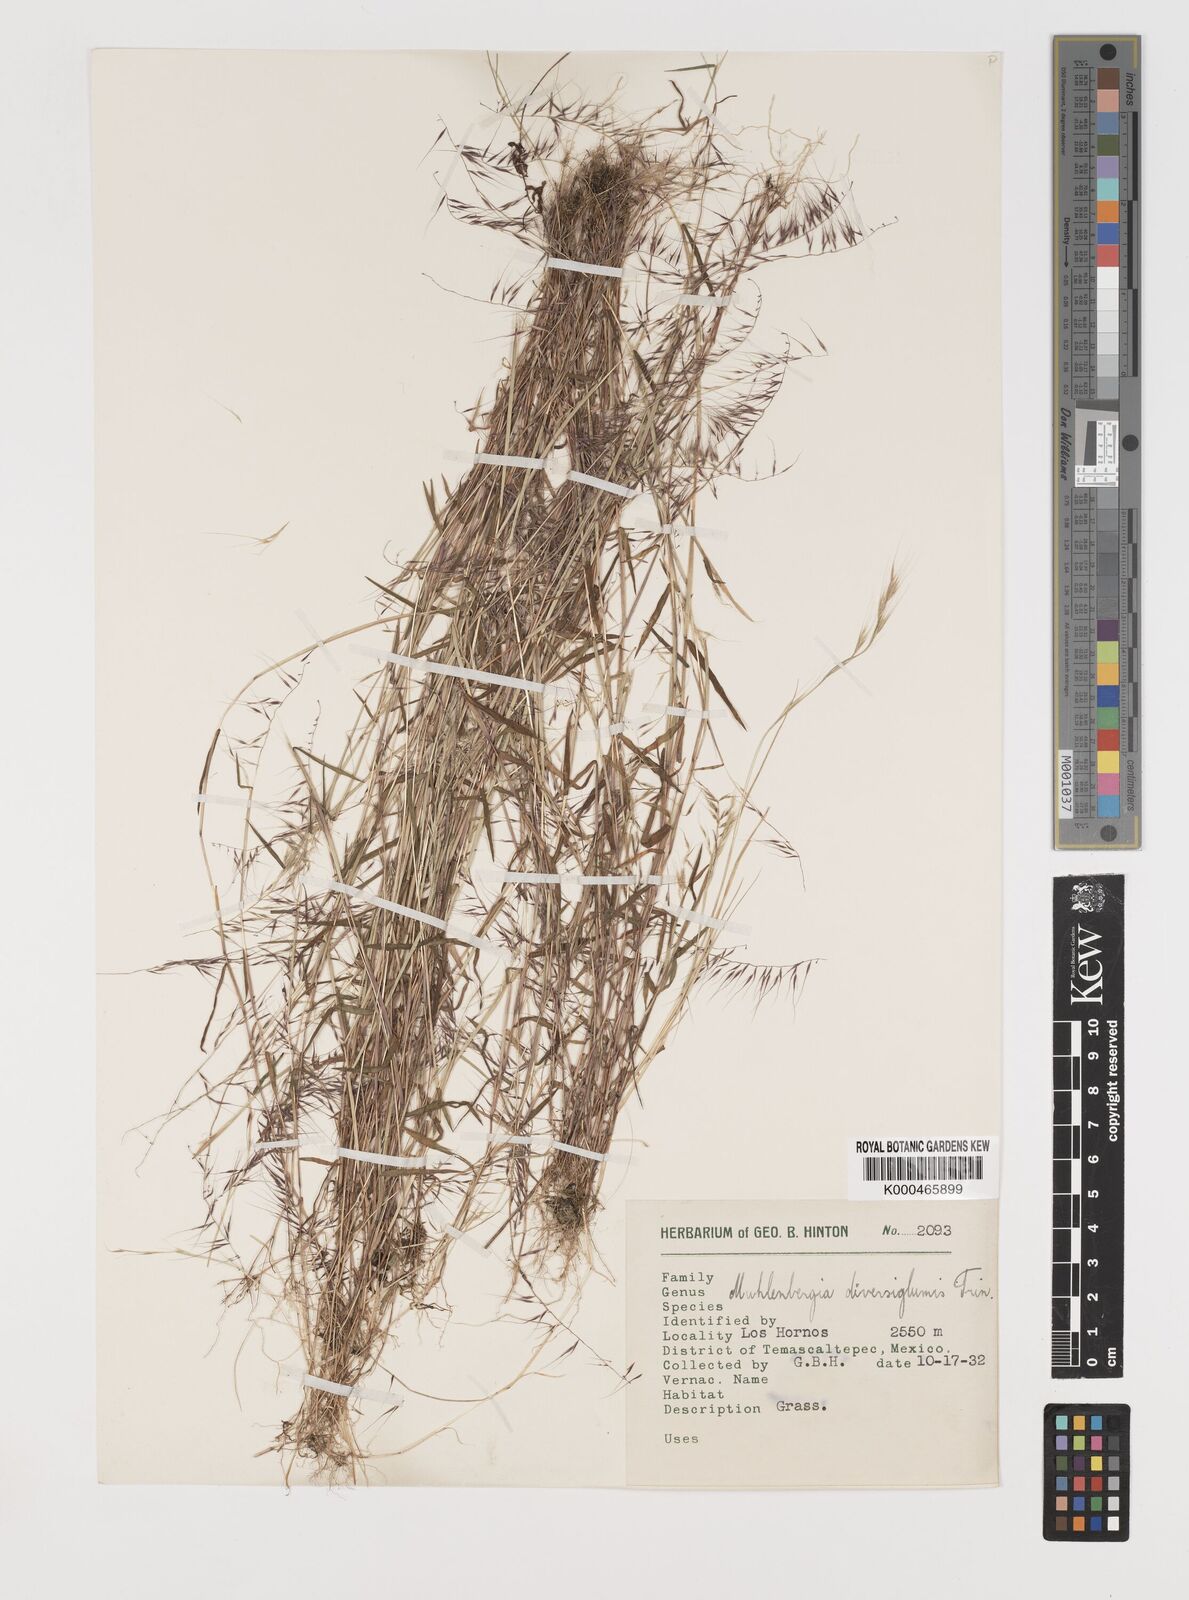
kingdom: Plantae
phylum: Tracheophyta
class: Liliopsida
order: Poales
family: Poaceae
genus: Muhlenbergia
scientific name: Muhlenbergia diversiglumis
